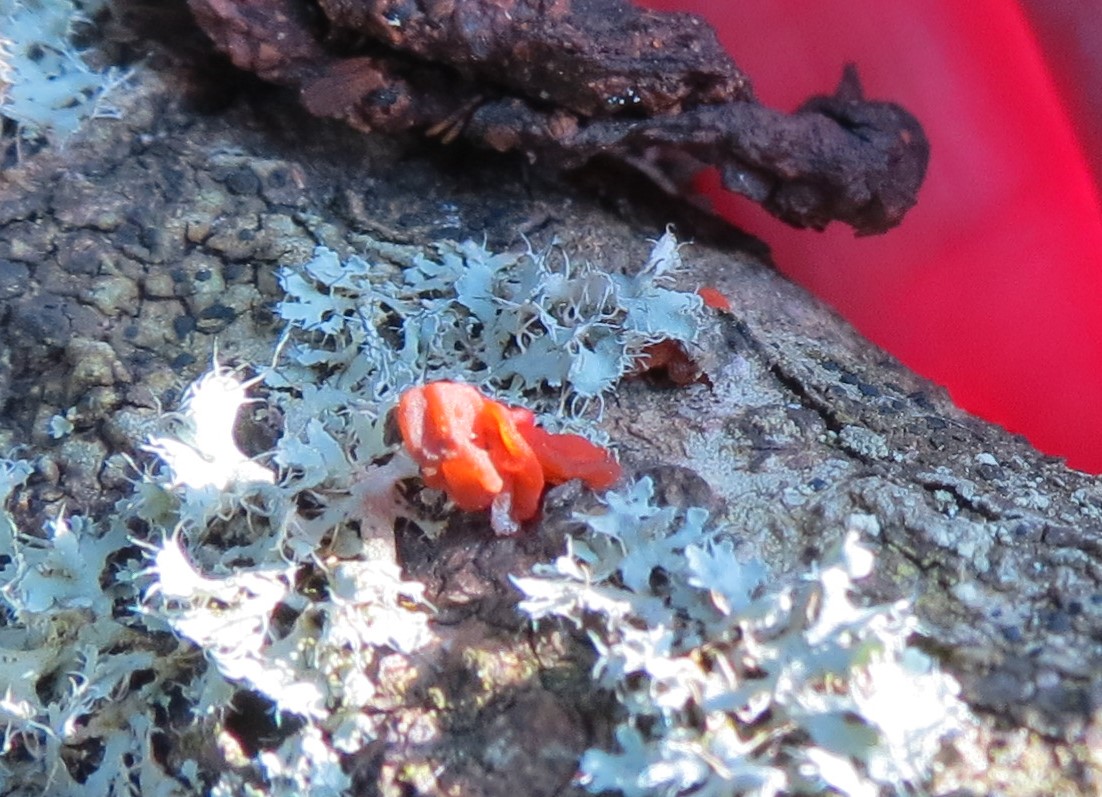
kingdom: Fungi
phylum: Basidiomycota
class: Tremellomycetes
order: Tremellales
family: Tremellaceae
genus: Tremella
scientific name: Tremella
